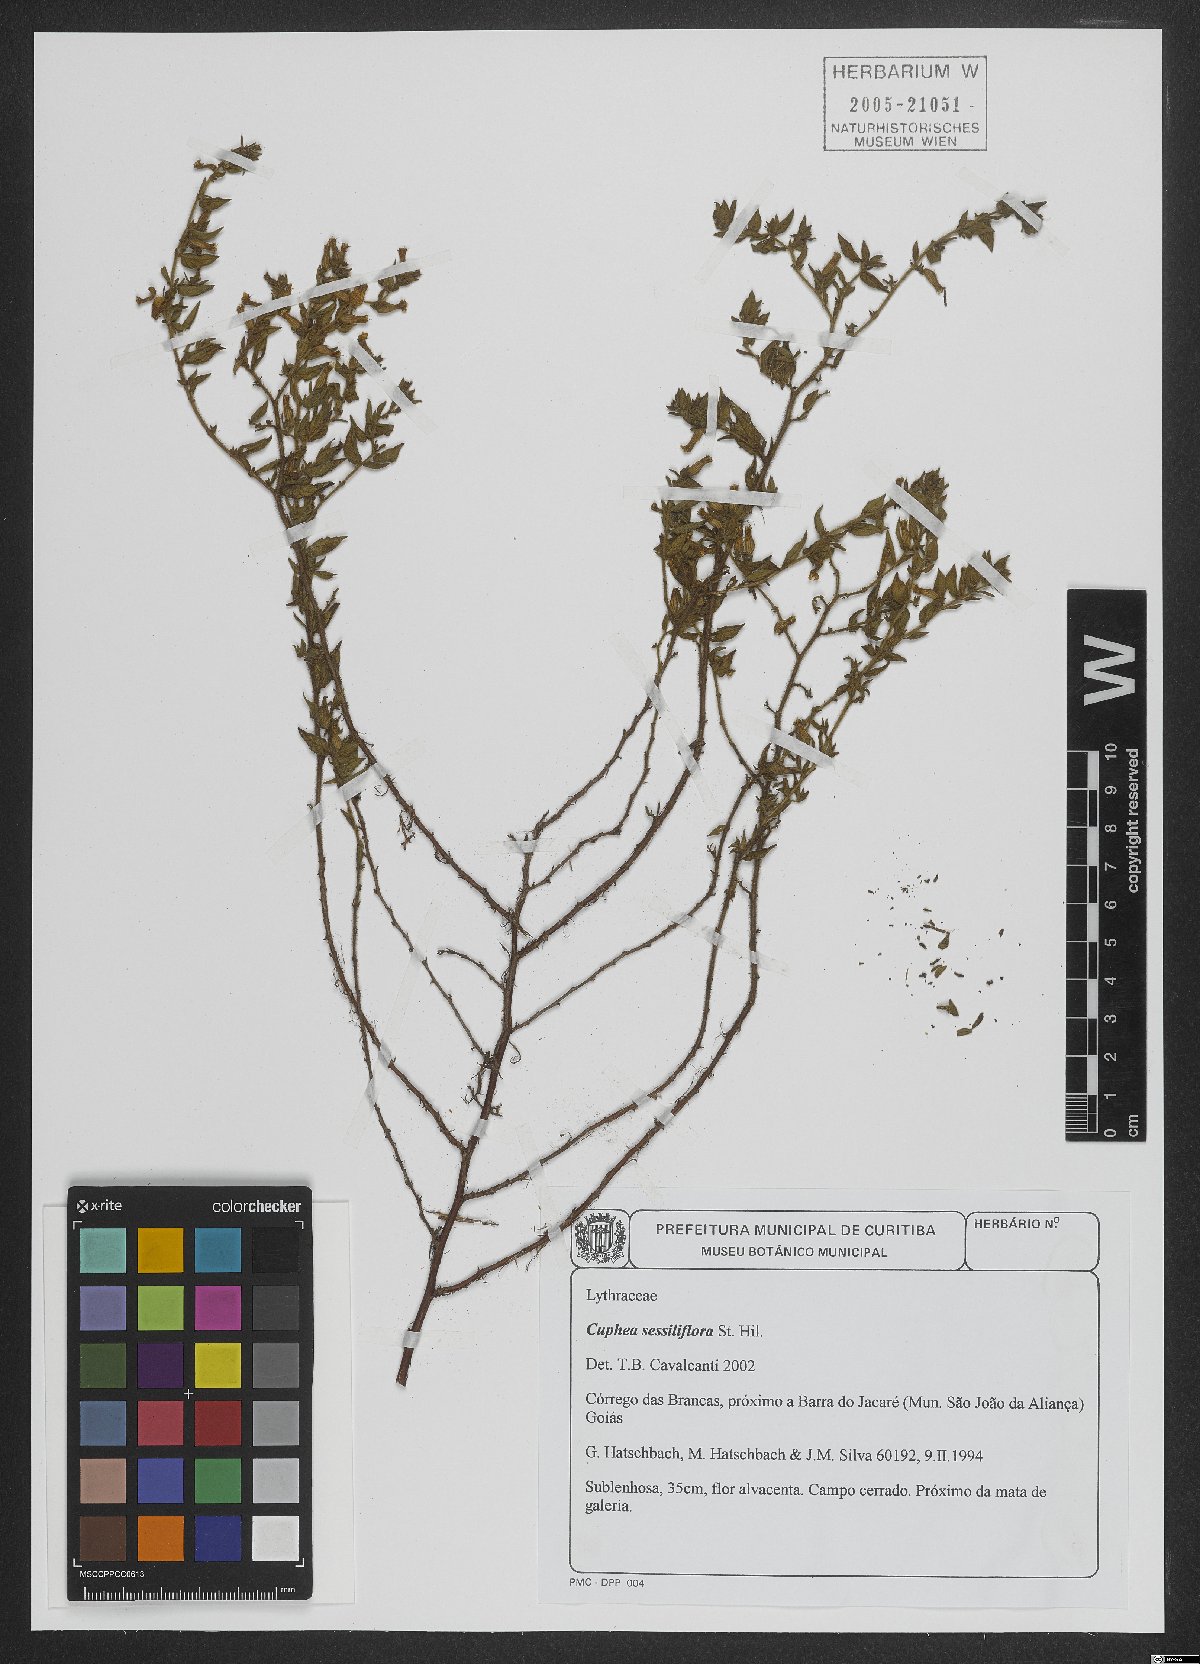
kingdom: Plantae
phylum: Tracheophyta
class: Magnoliopsida
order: Myrtales
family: Lythraceae
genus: Cuphea
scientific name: Cuphea sessiliflora
